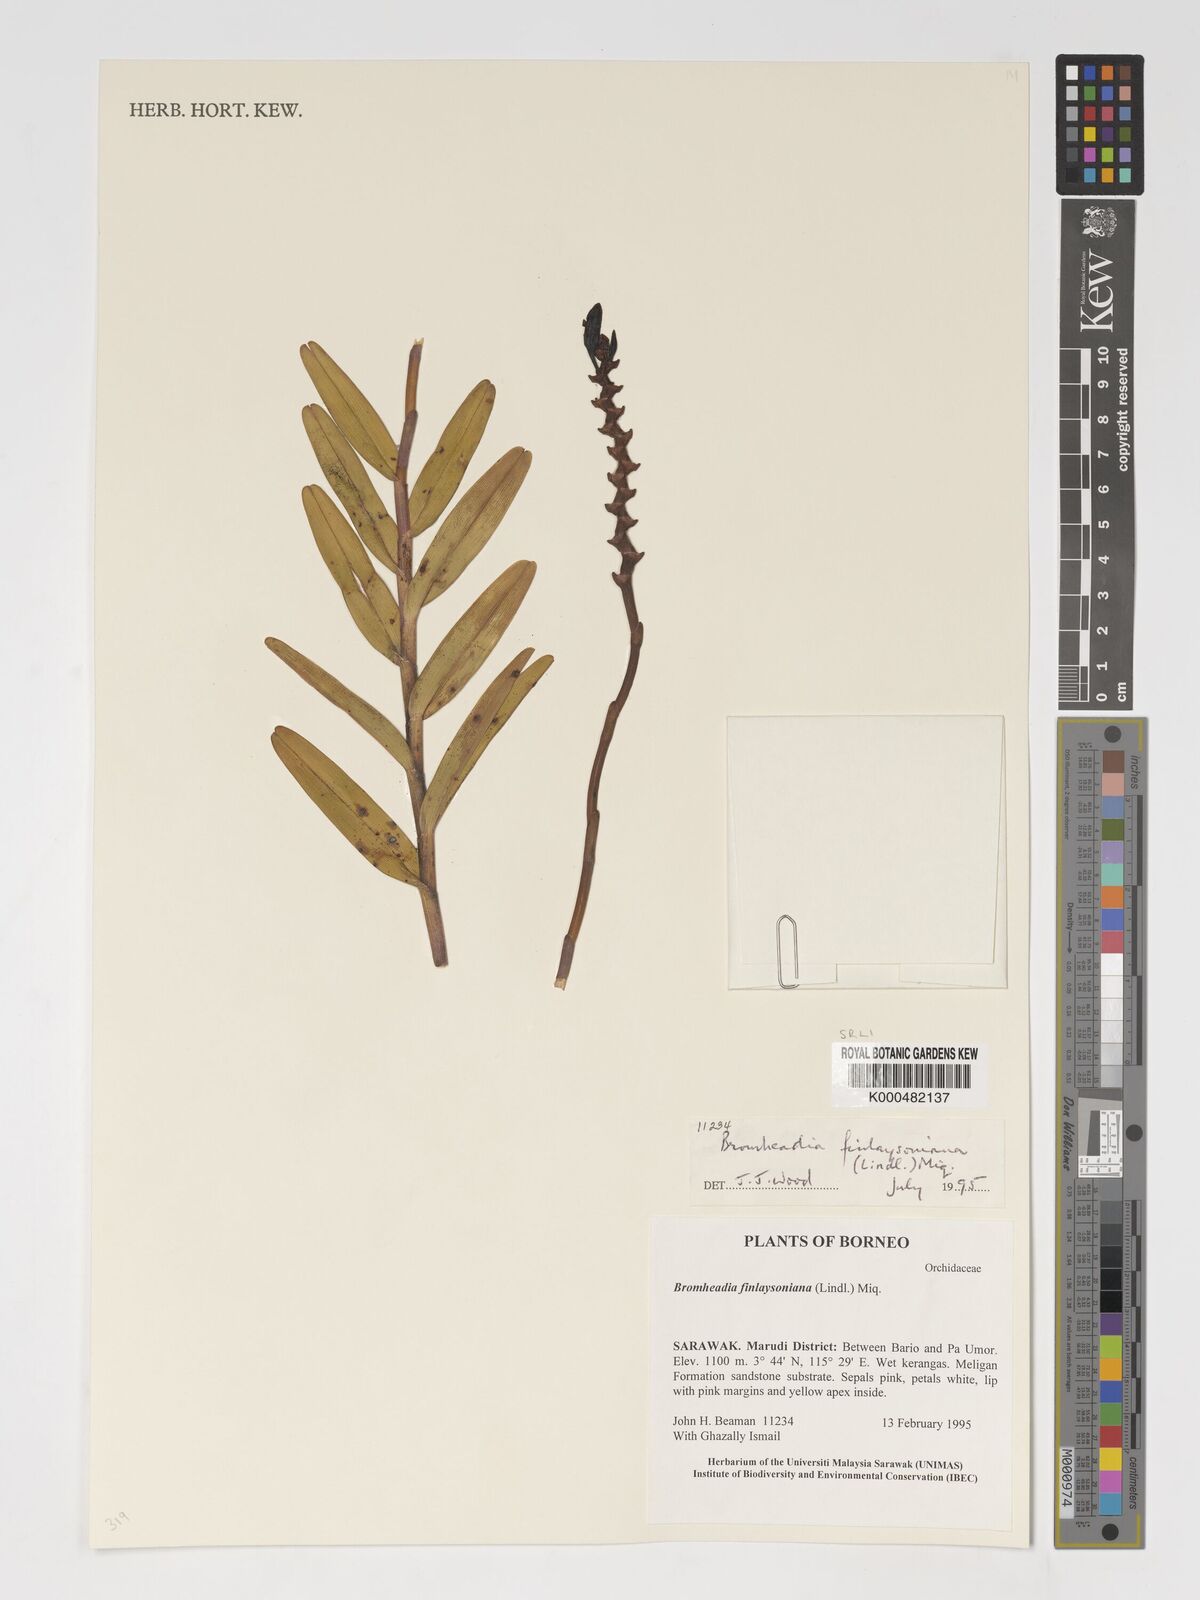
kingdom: Plantae
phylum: Tracheophyta
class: Liliopsida
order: Asparagales
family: Orchidaceae
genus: Bromheadia
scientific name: Bromheadia finlaysoniana
